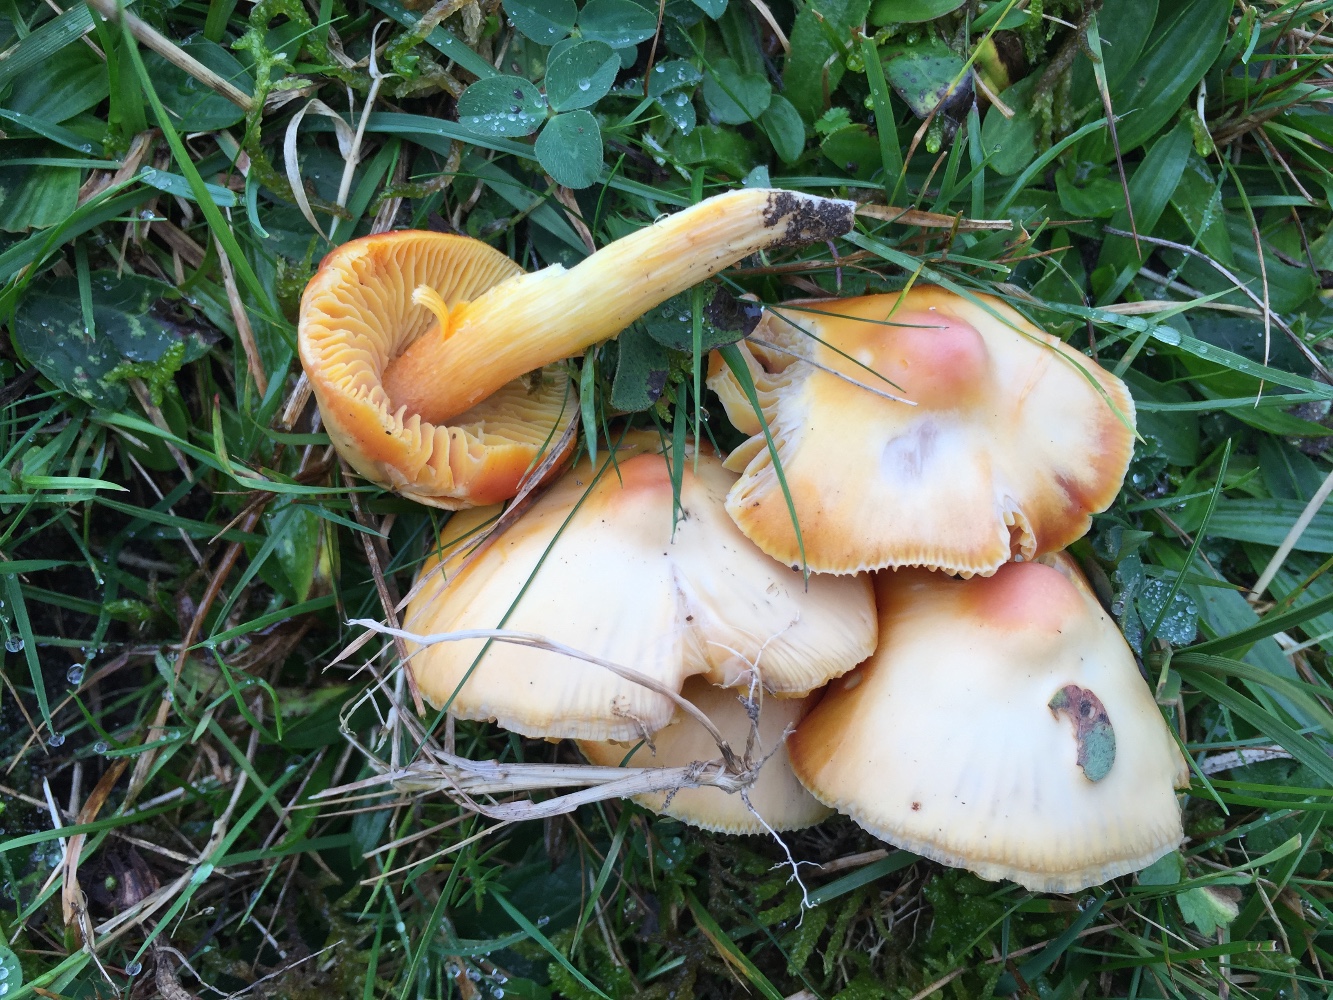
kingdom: Fungi
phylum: Basidiomycota
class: Agaricomycetes
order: Agaricales
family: Hygrophoraceae
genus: Hygrocybe
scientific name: Hygrocybe punicea
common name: skarlagen-vokshat
